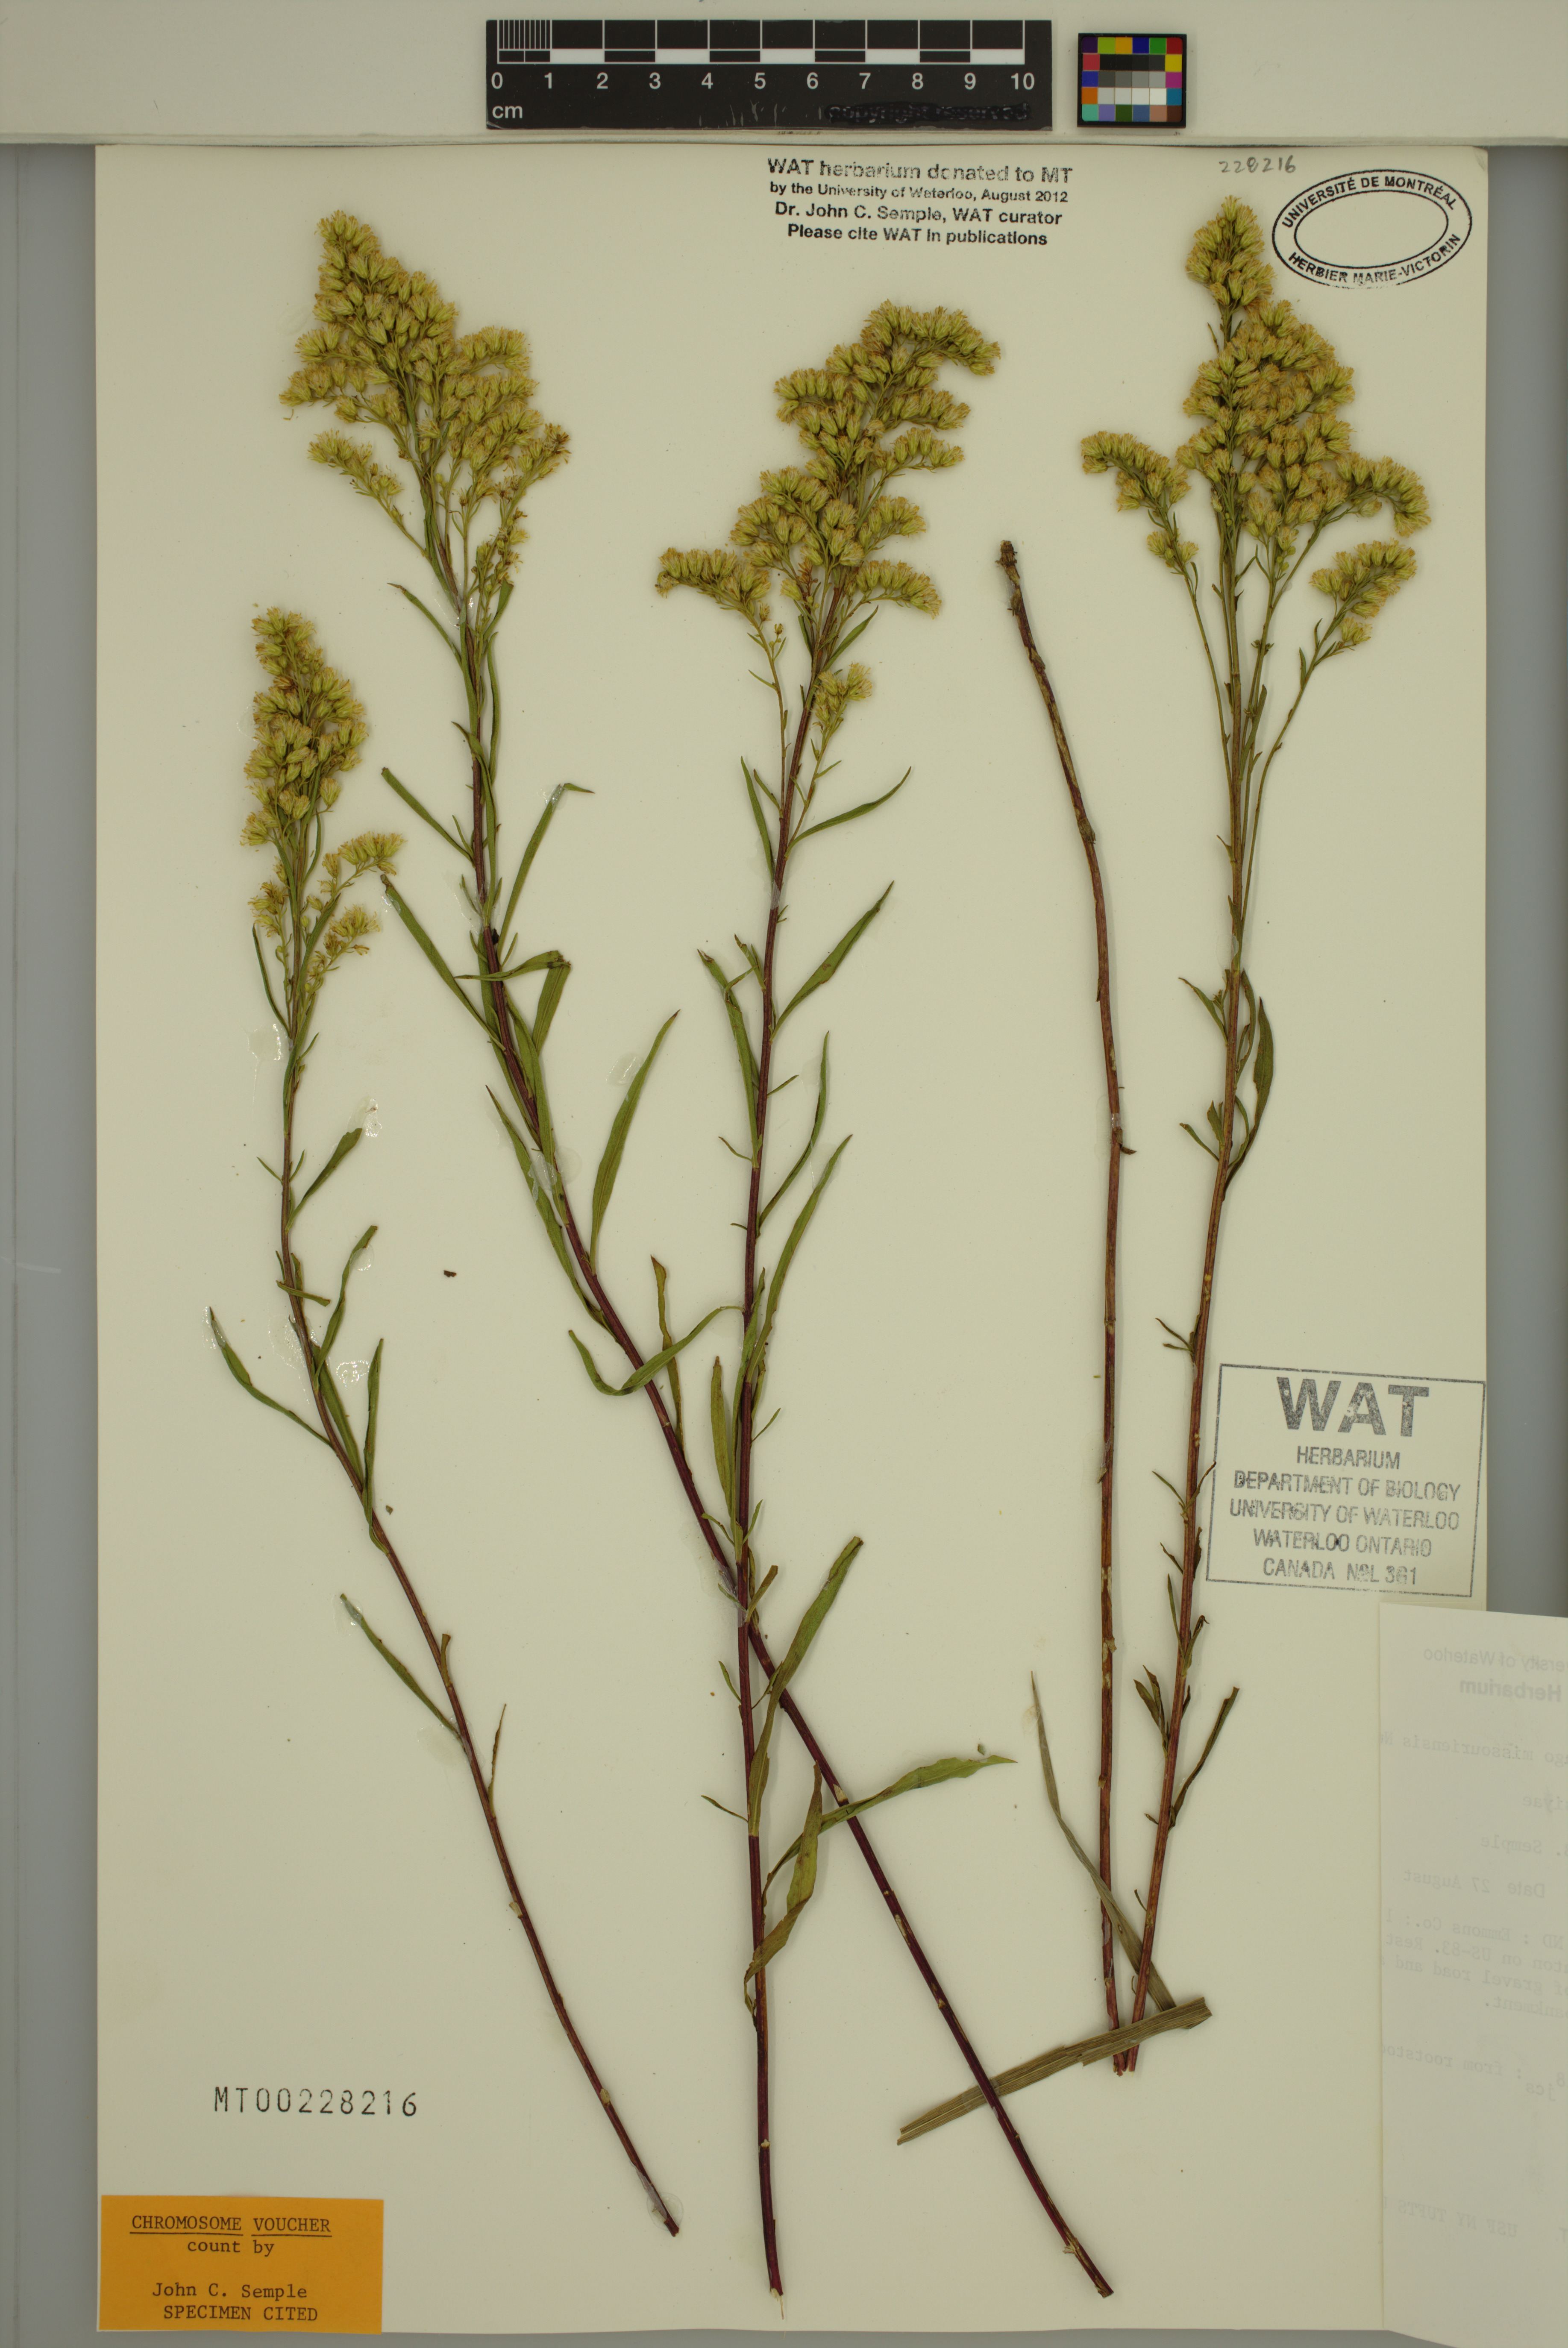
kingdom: Plantae
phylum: Tracheophyta
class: Magnoliopsida
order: Asterales
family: Asteraceae
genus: Solidago
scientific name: Solidago missouriensis
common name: Prairie goldenrod
